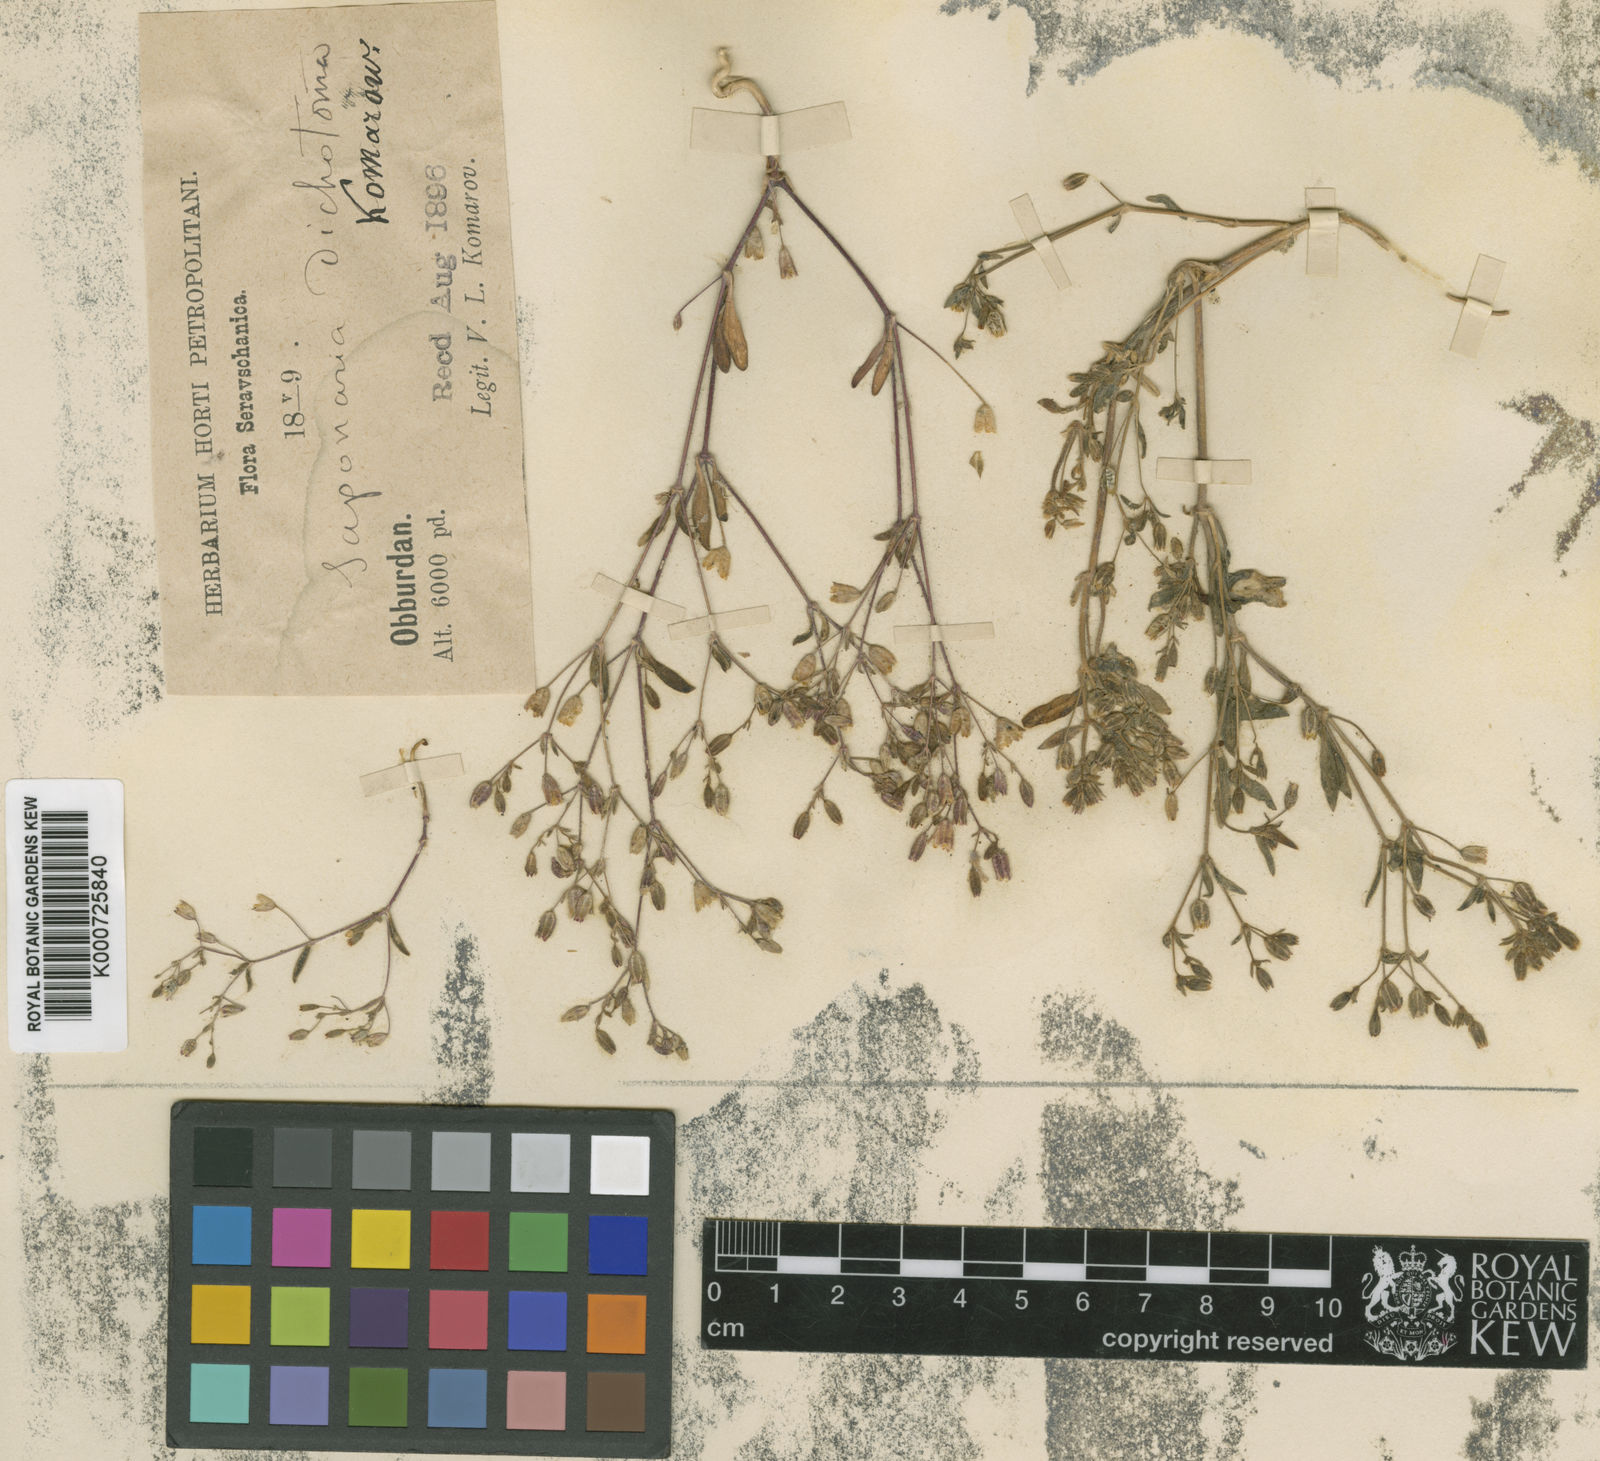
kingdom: Plantae
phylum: Tracheophyta
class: Magnoliopsida
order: Caryophyllales
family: Caryophyllaceae
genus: Psammophiliella
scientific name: Psammophiliella floribunda
